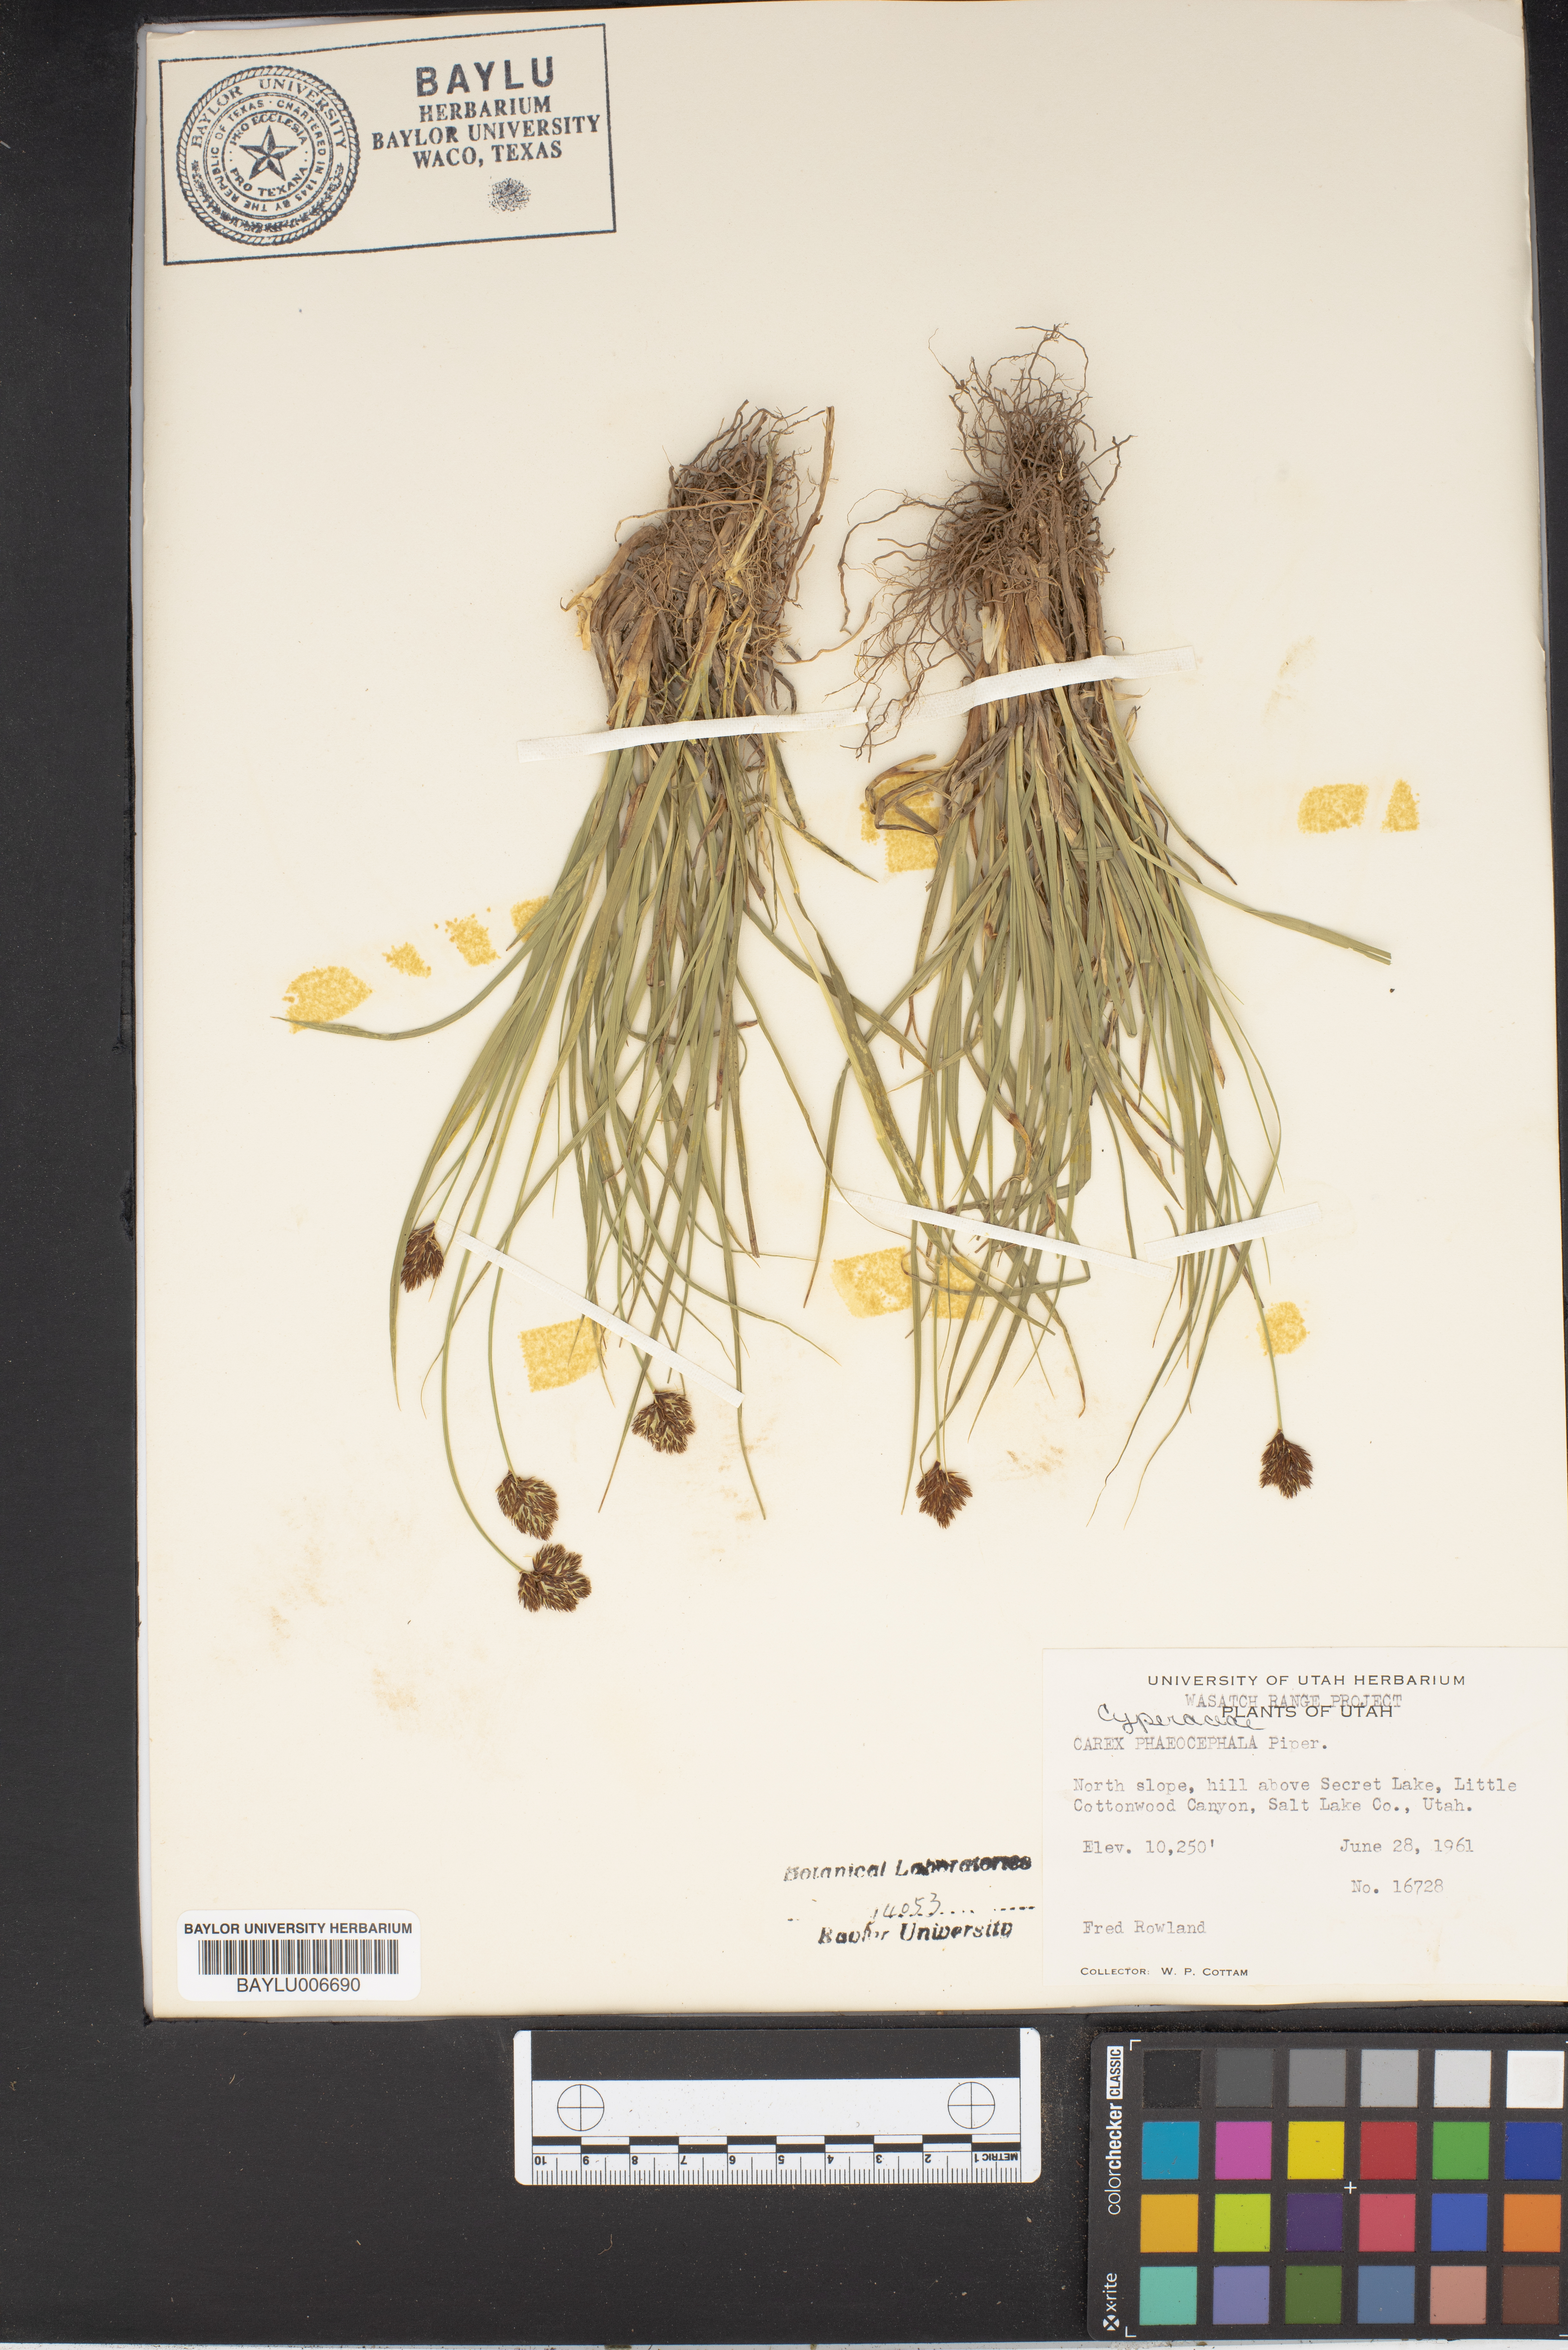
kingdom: Plantae
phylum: Tracheophyta
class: Liliopsida
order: Poales
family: Cyperaceae
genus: Carex
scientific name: Carex phaeocephala
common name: Brown-head sedge
